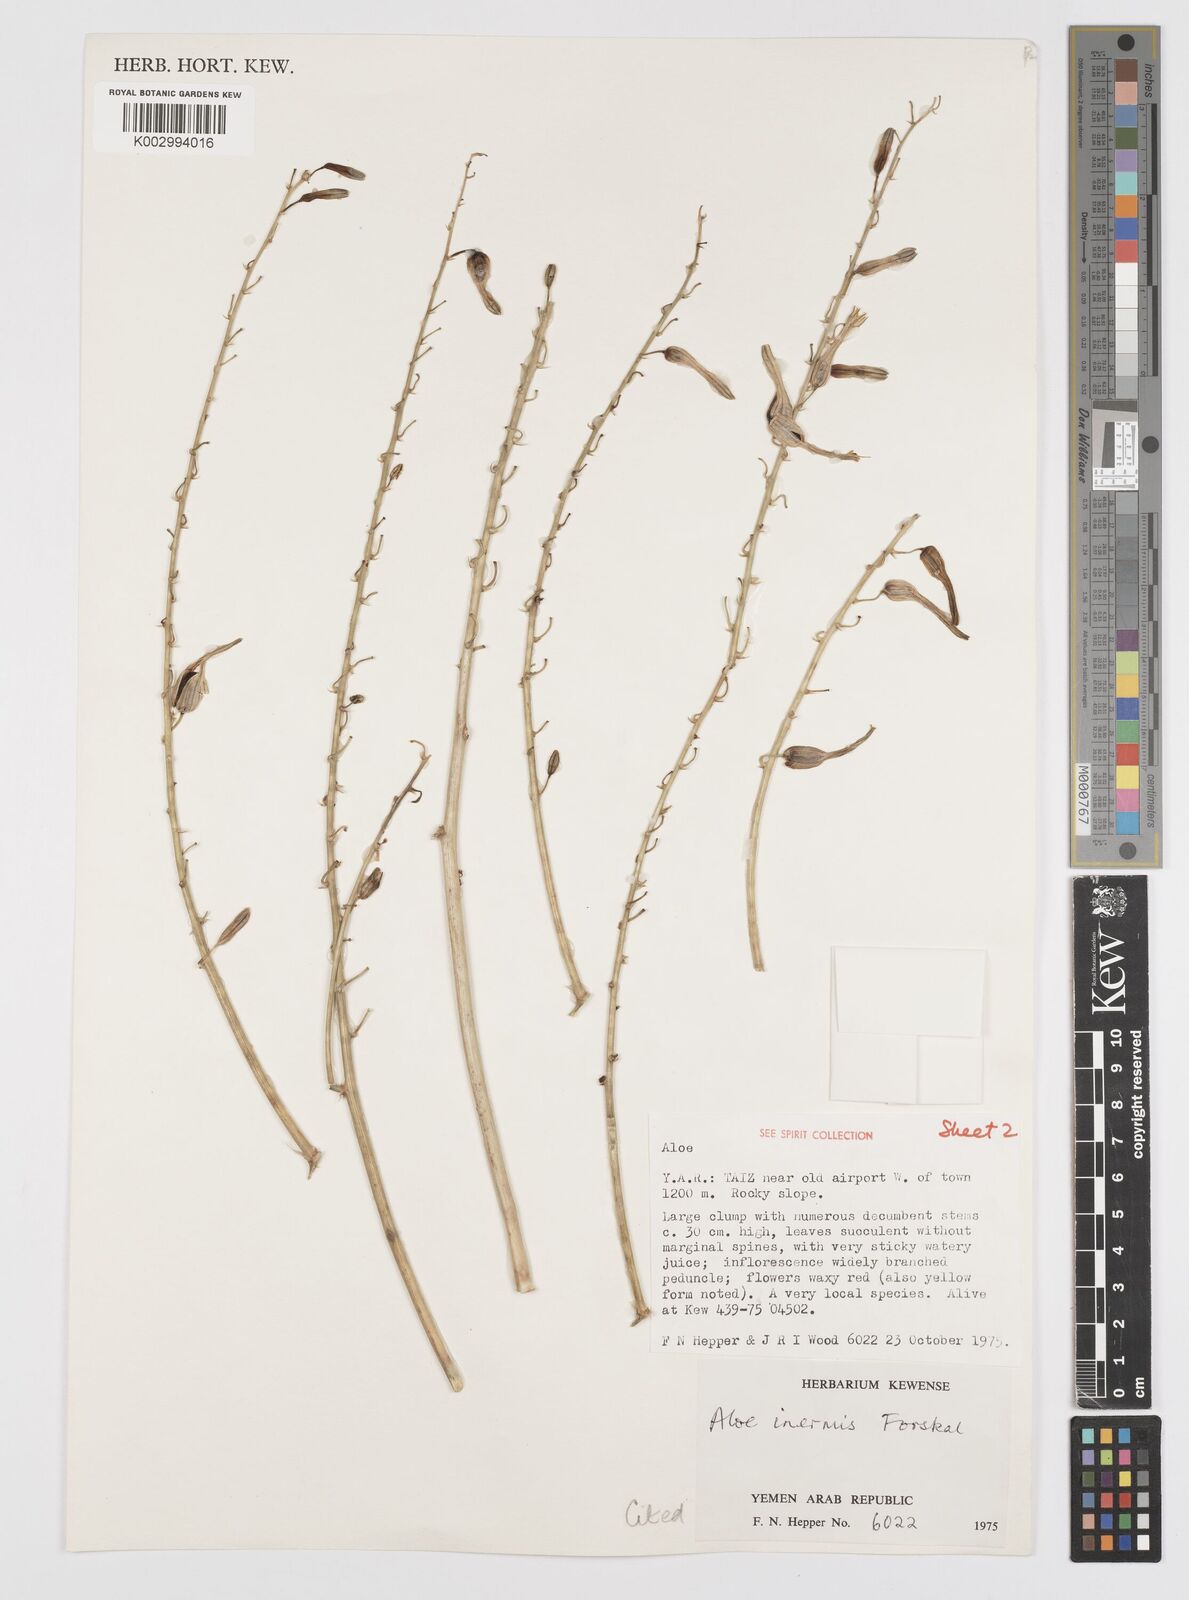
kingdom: Plantae
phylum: Tracheophyta
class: Liliopsida
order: Asparagales
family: Asphodelaceae
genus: Aloe
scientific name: Aloe inermis
